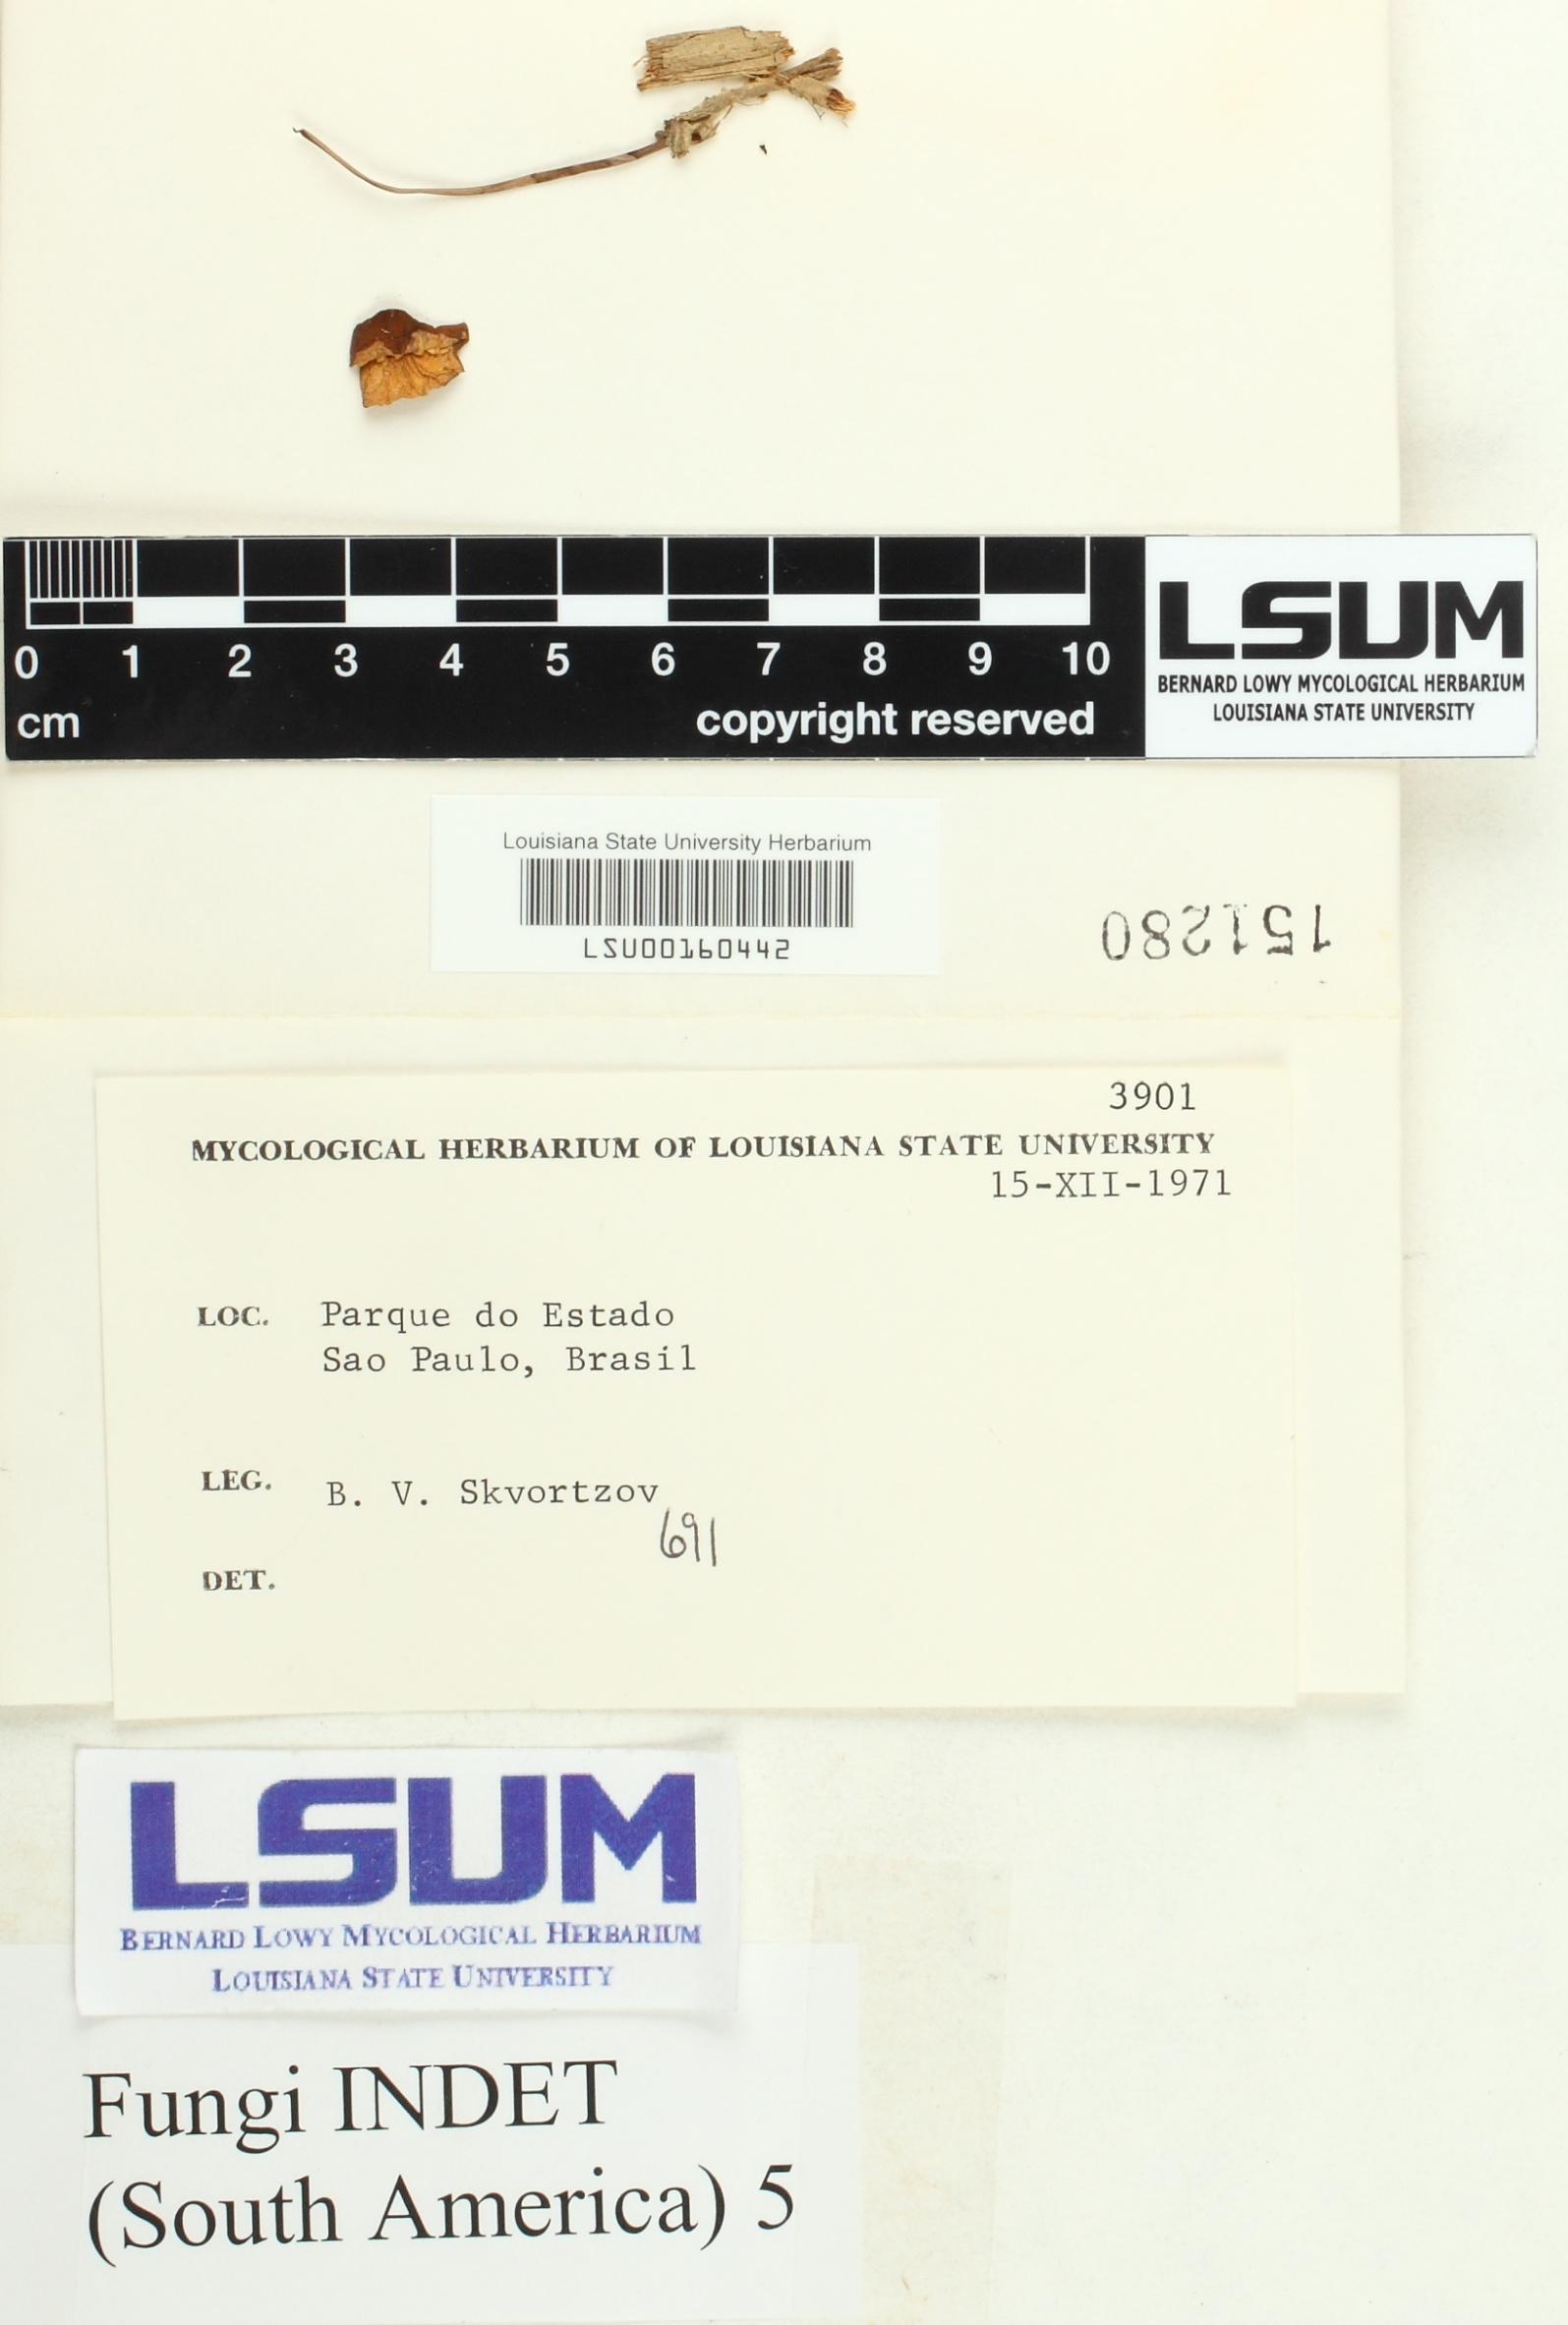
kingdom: Fungi
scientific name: Fungi
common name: Fungi
